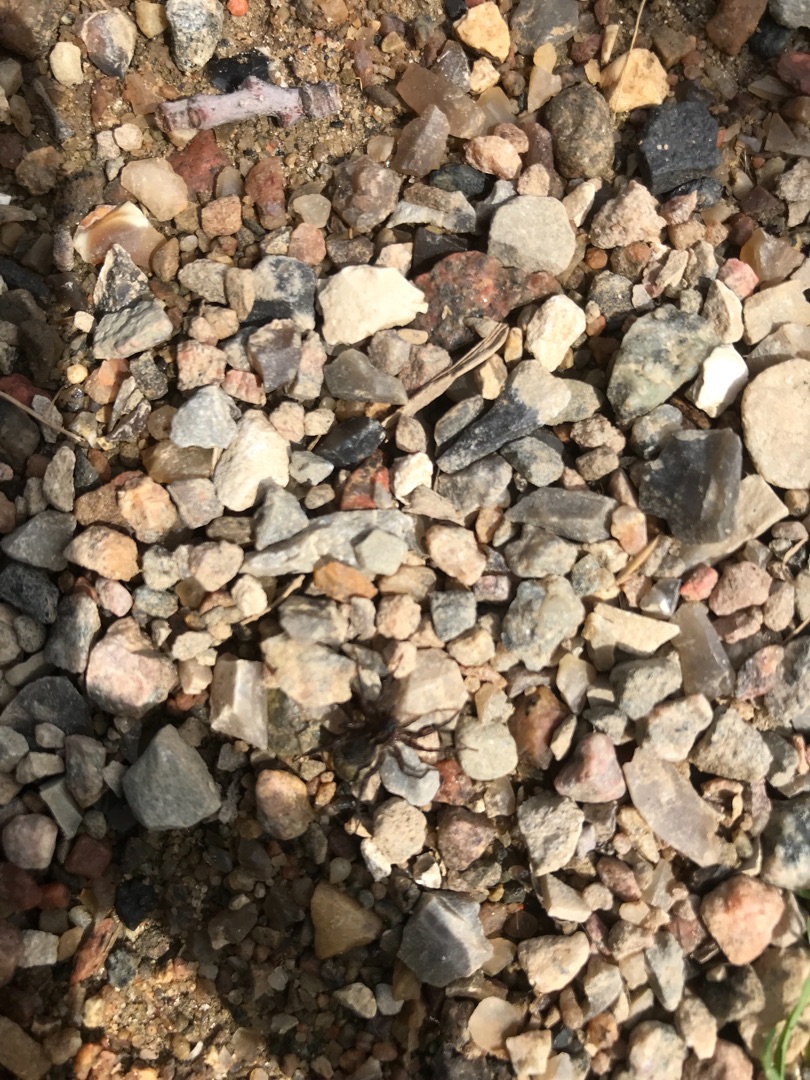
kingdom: Animalia
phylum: Arthropoda
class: Arachnida
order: Araneae
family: Lycosidae
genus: Pardosa
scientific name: Pardosa
